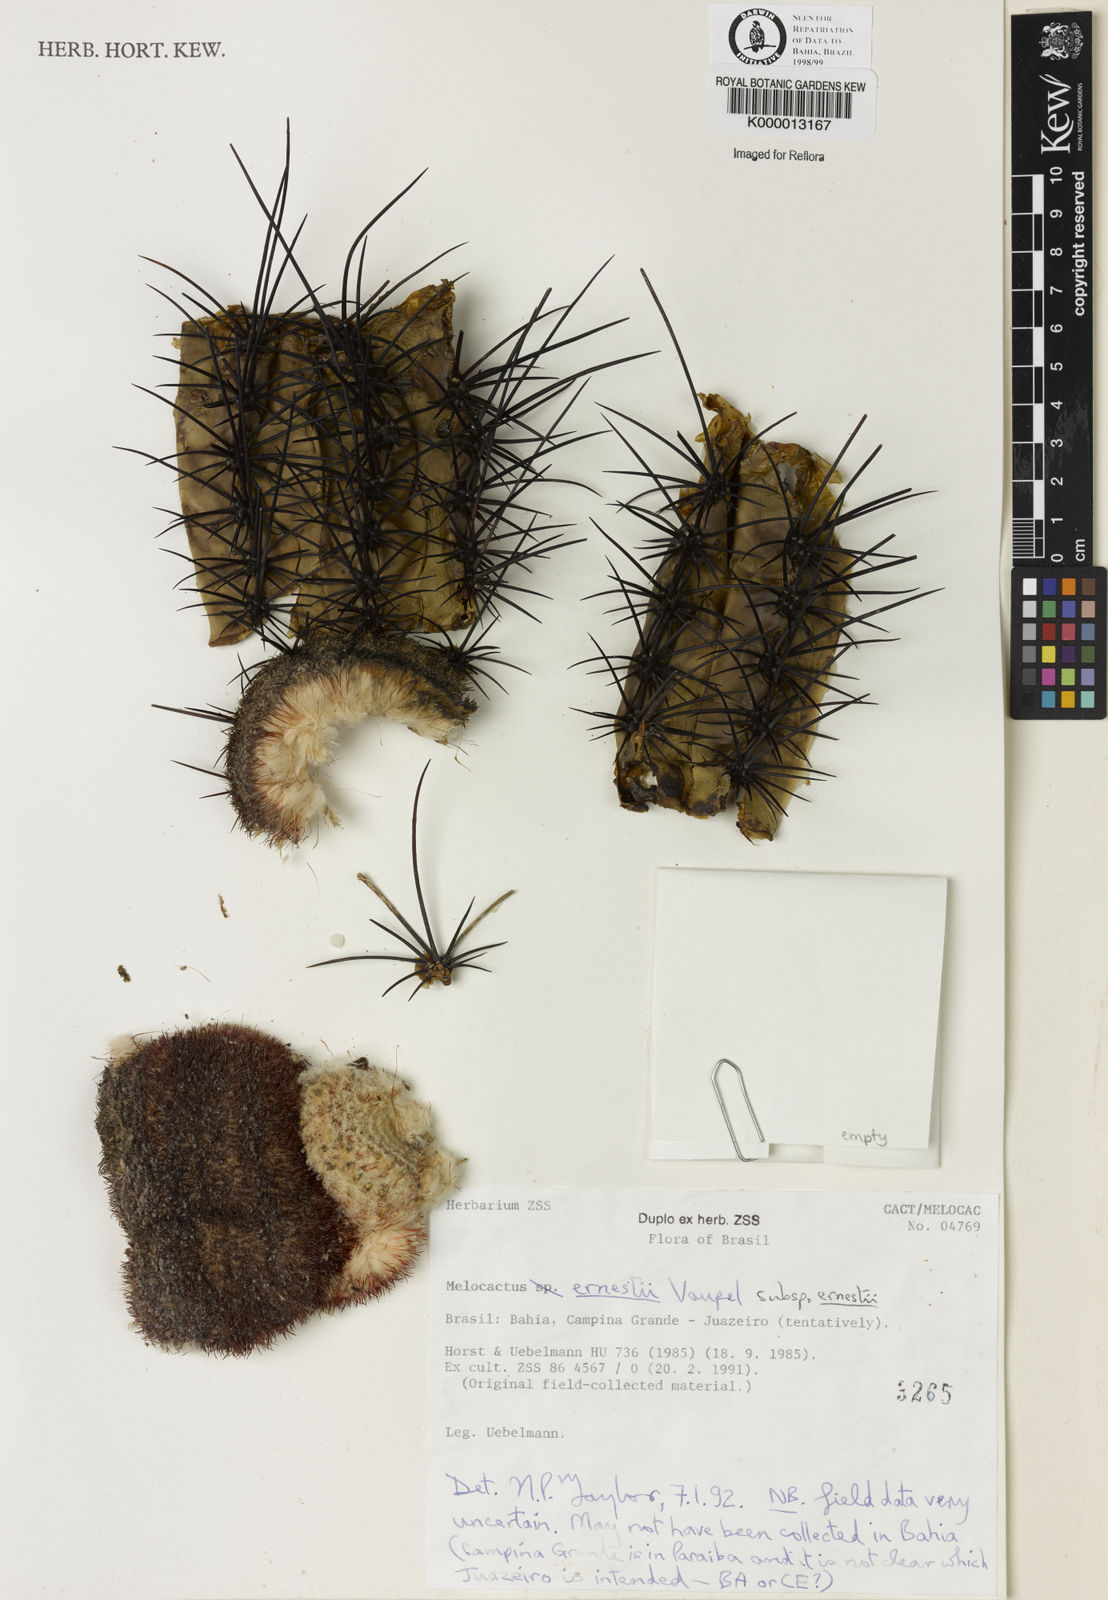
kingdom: Plantae
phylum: Tracheophyta
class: Magnoliopsida
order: Caryophyllales
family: Cactaceae
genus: Melocactus
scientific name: Melocactus ernestii
